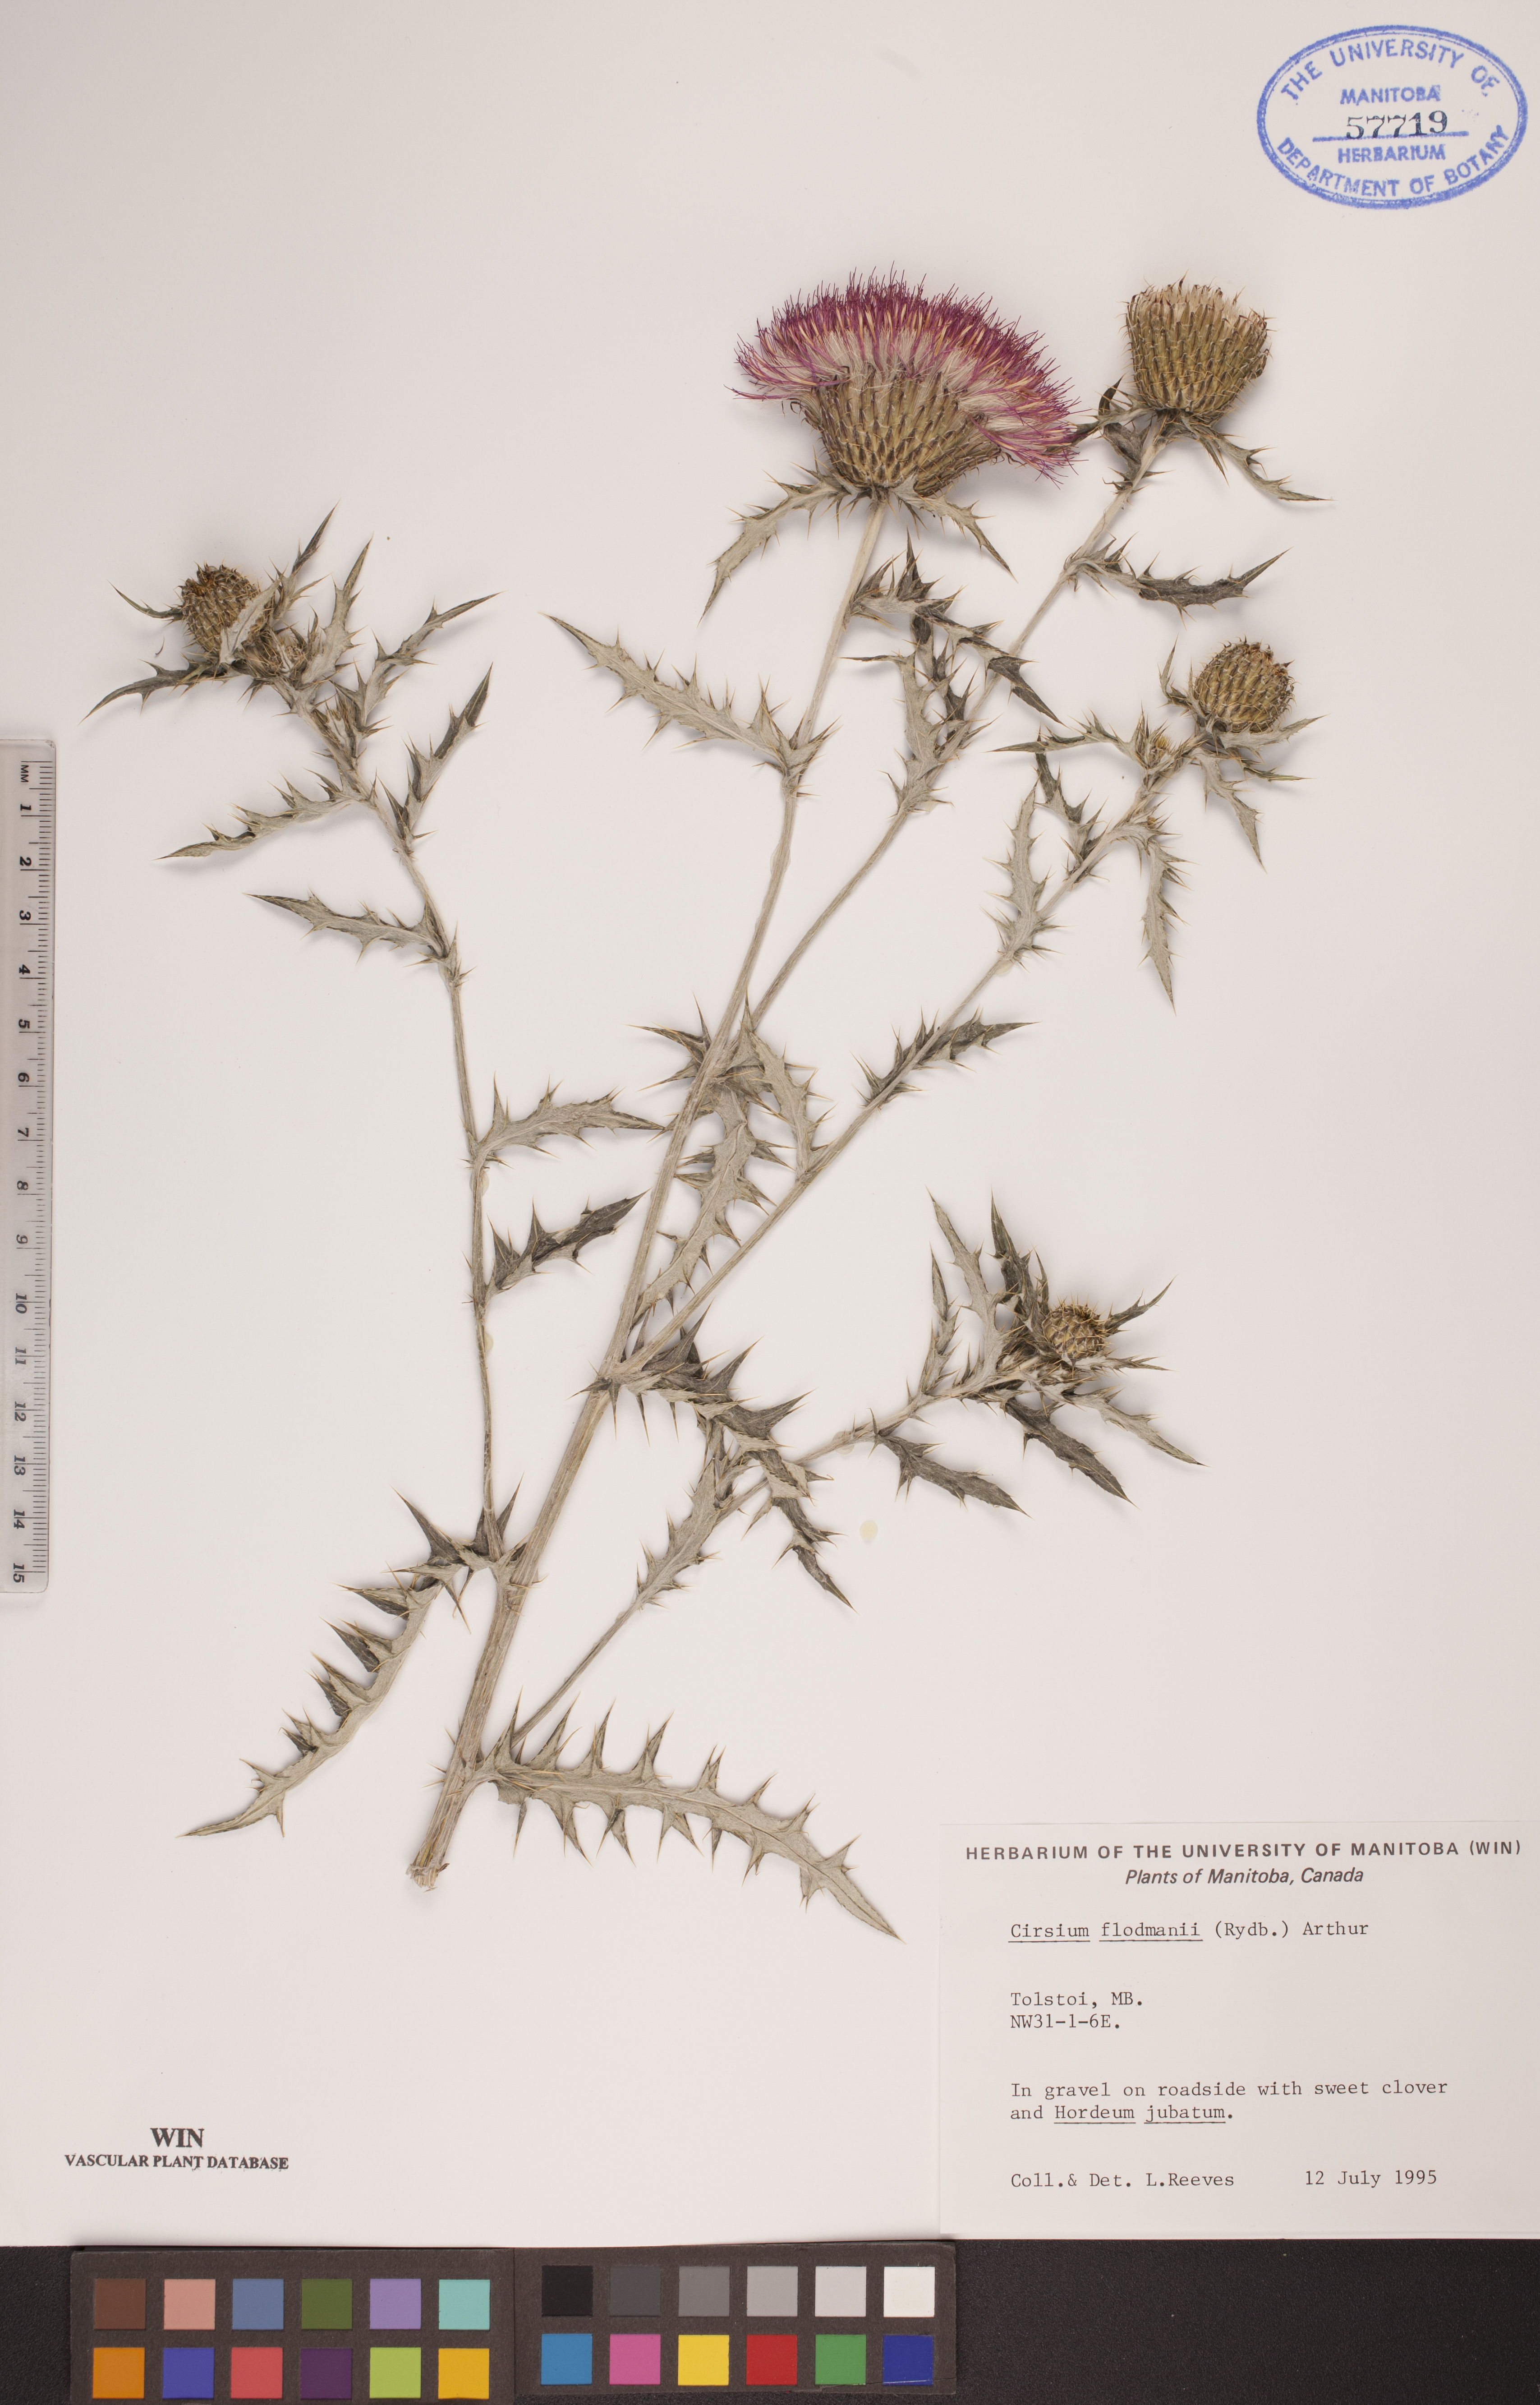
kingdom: Plantae
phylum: Tracheophyta
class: Magnoliopsida
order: Asterales
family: Asteraceae
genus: Cirsium
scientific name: Cirsium flodmanii
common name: Flodman's thistle
